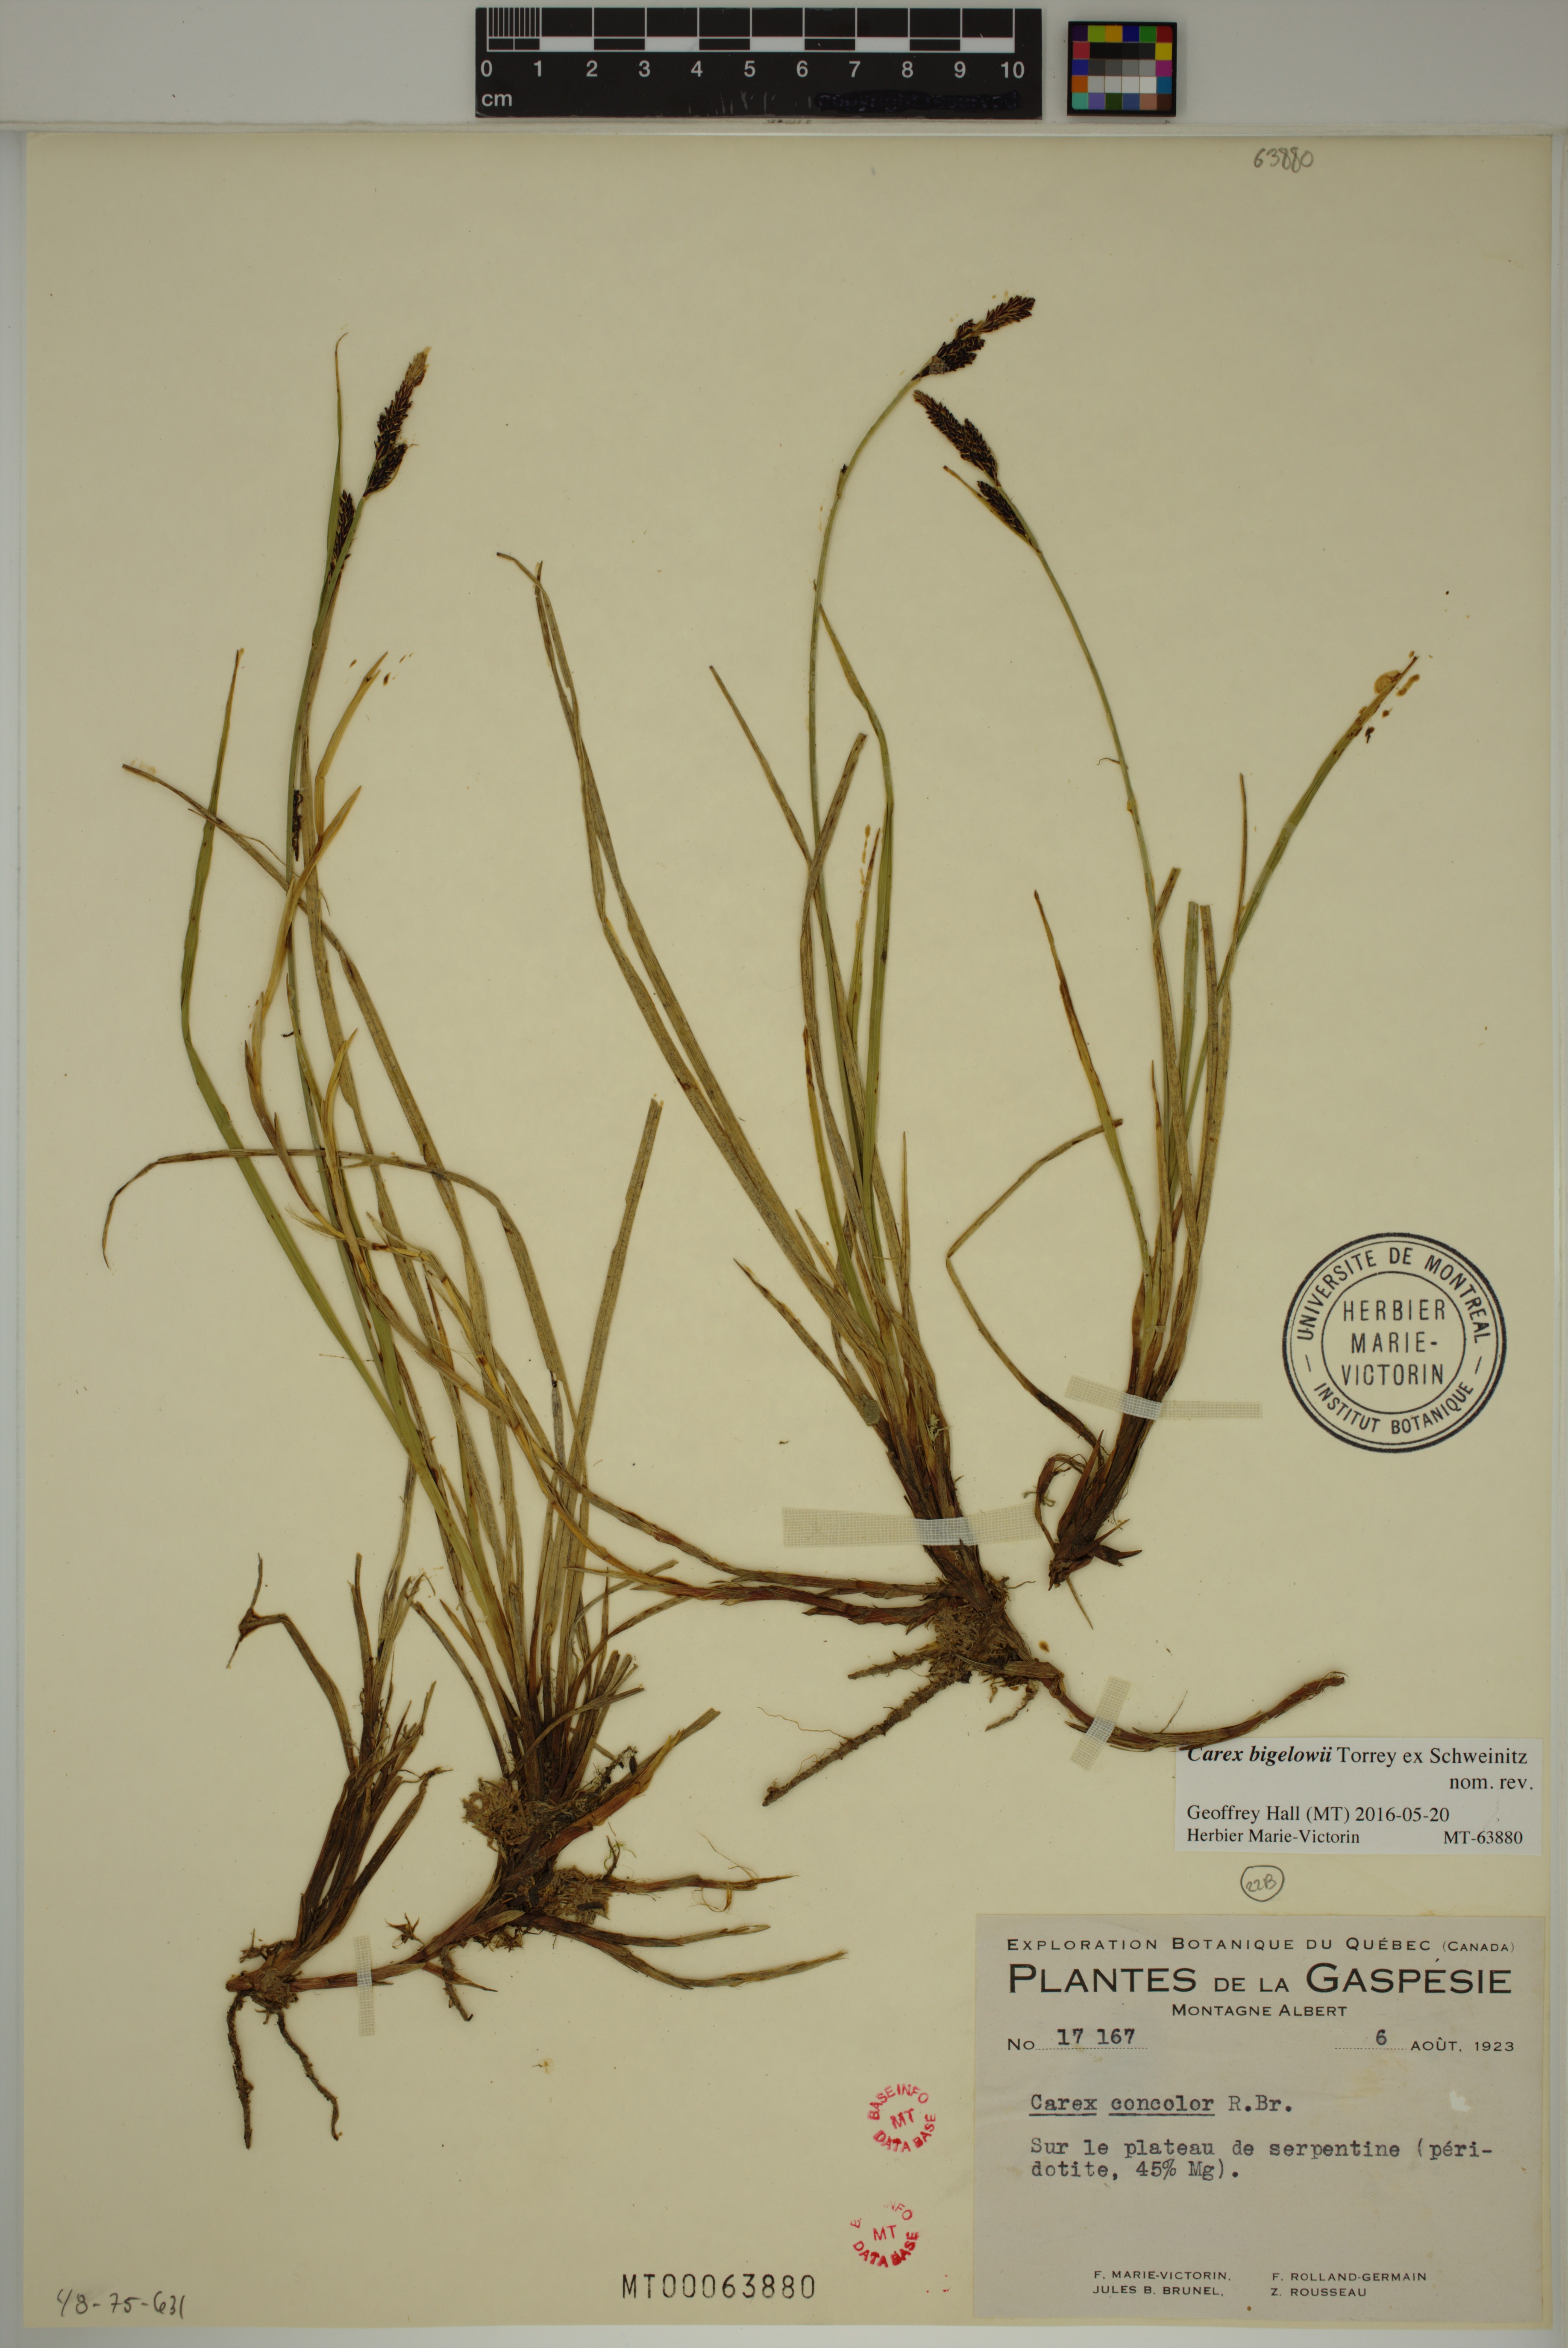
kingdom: Plantae
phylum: Tracheophyta
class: Liliopsida
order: Poales
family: Cyperaceae
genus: Carex
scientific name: Carex bigelowii
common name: Stiff sedge
